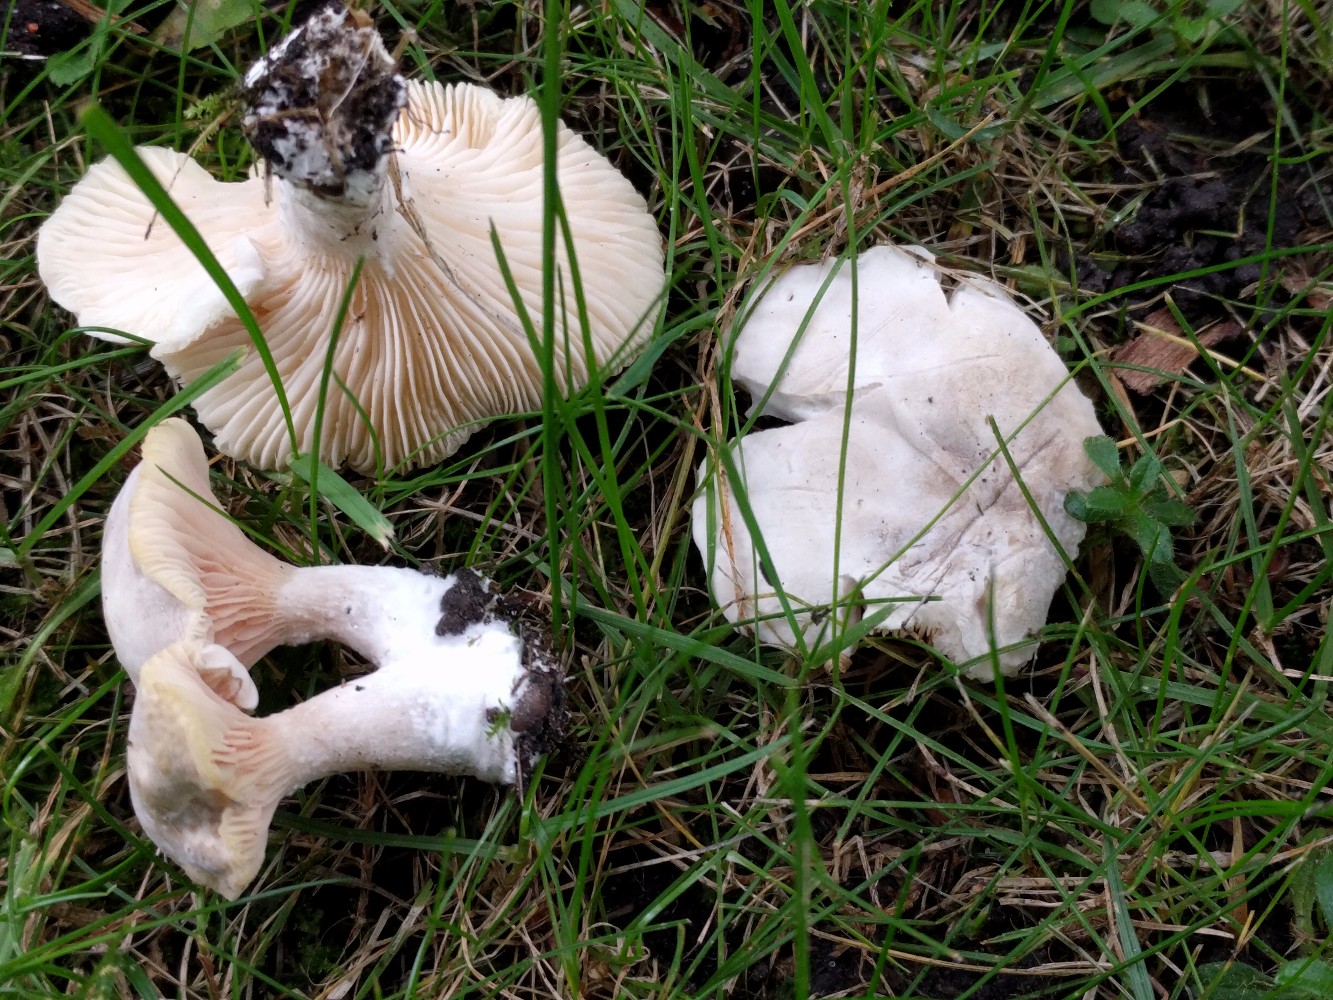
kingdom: Fungi
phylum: Basidiomycota
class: Agaricomycetes
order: Agaricales
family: Entolomataceae
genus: Clitopilus
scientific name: Clitopilus prunulus
